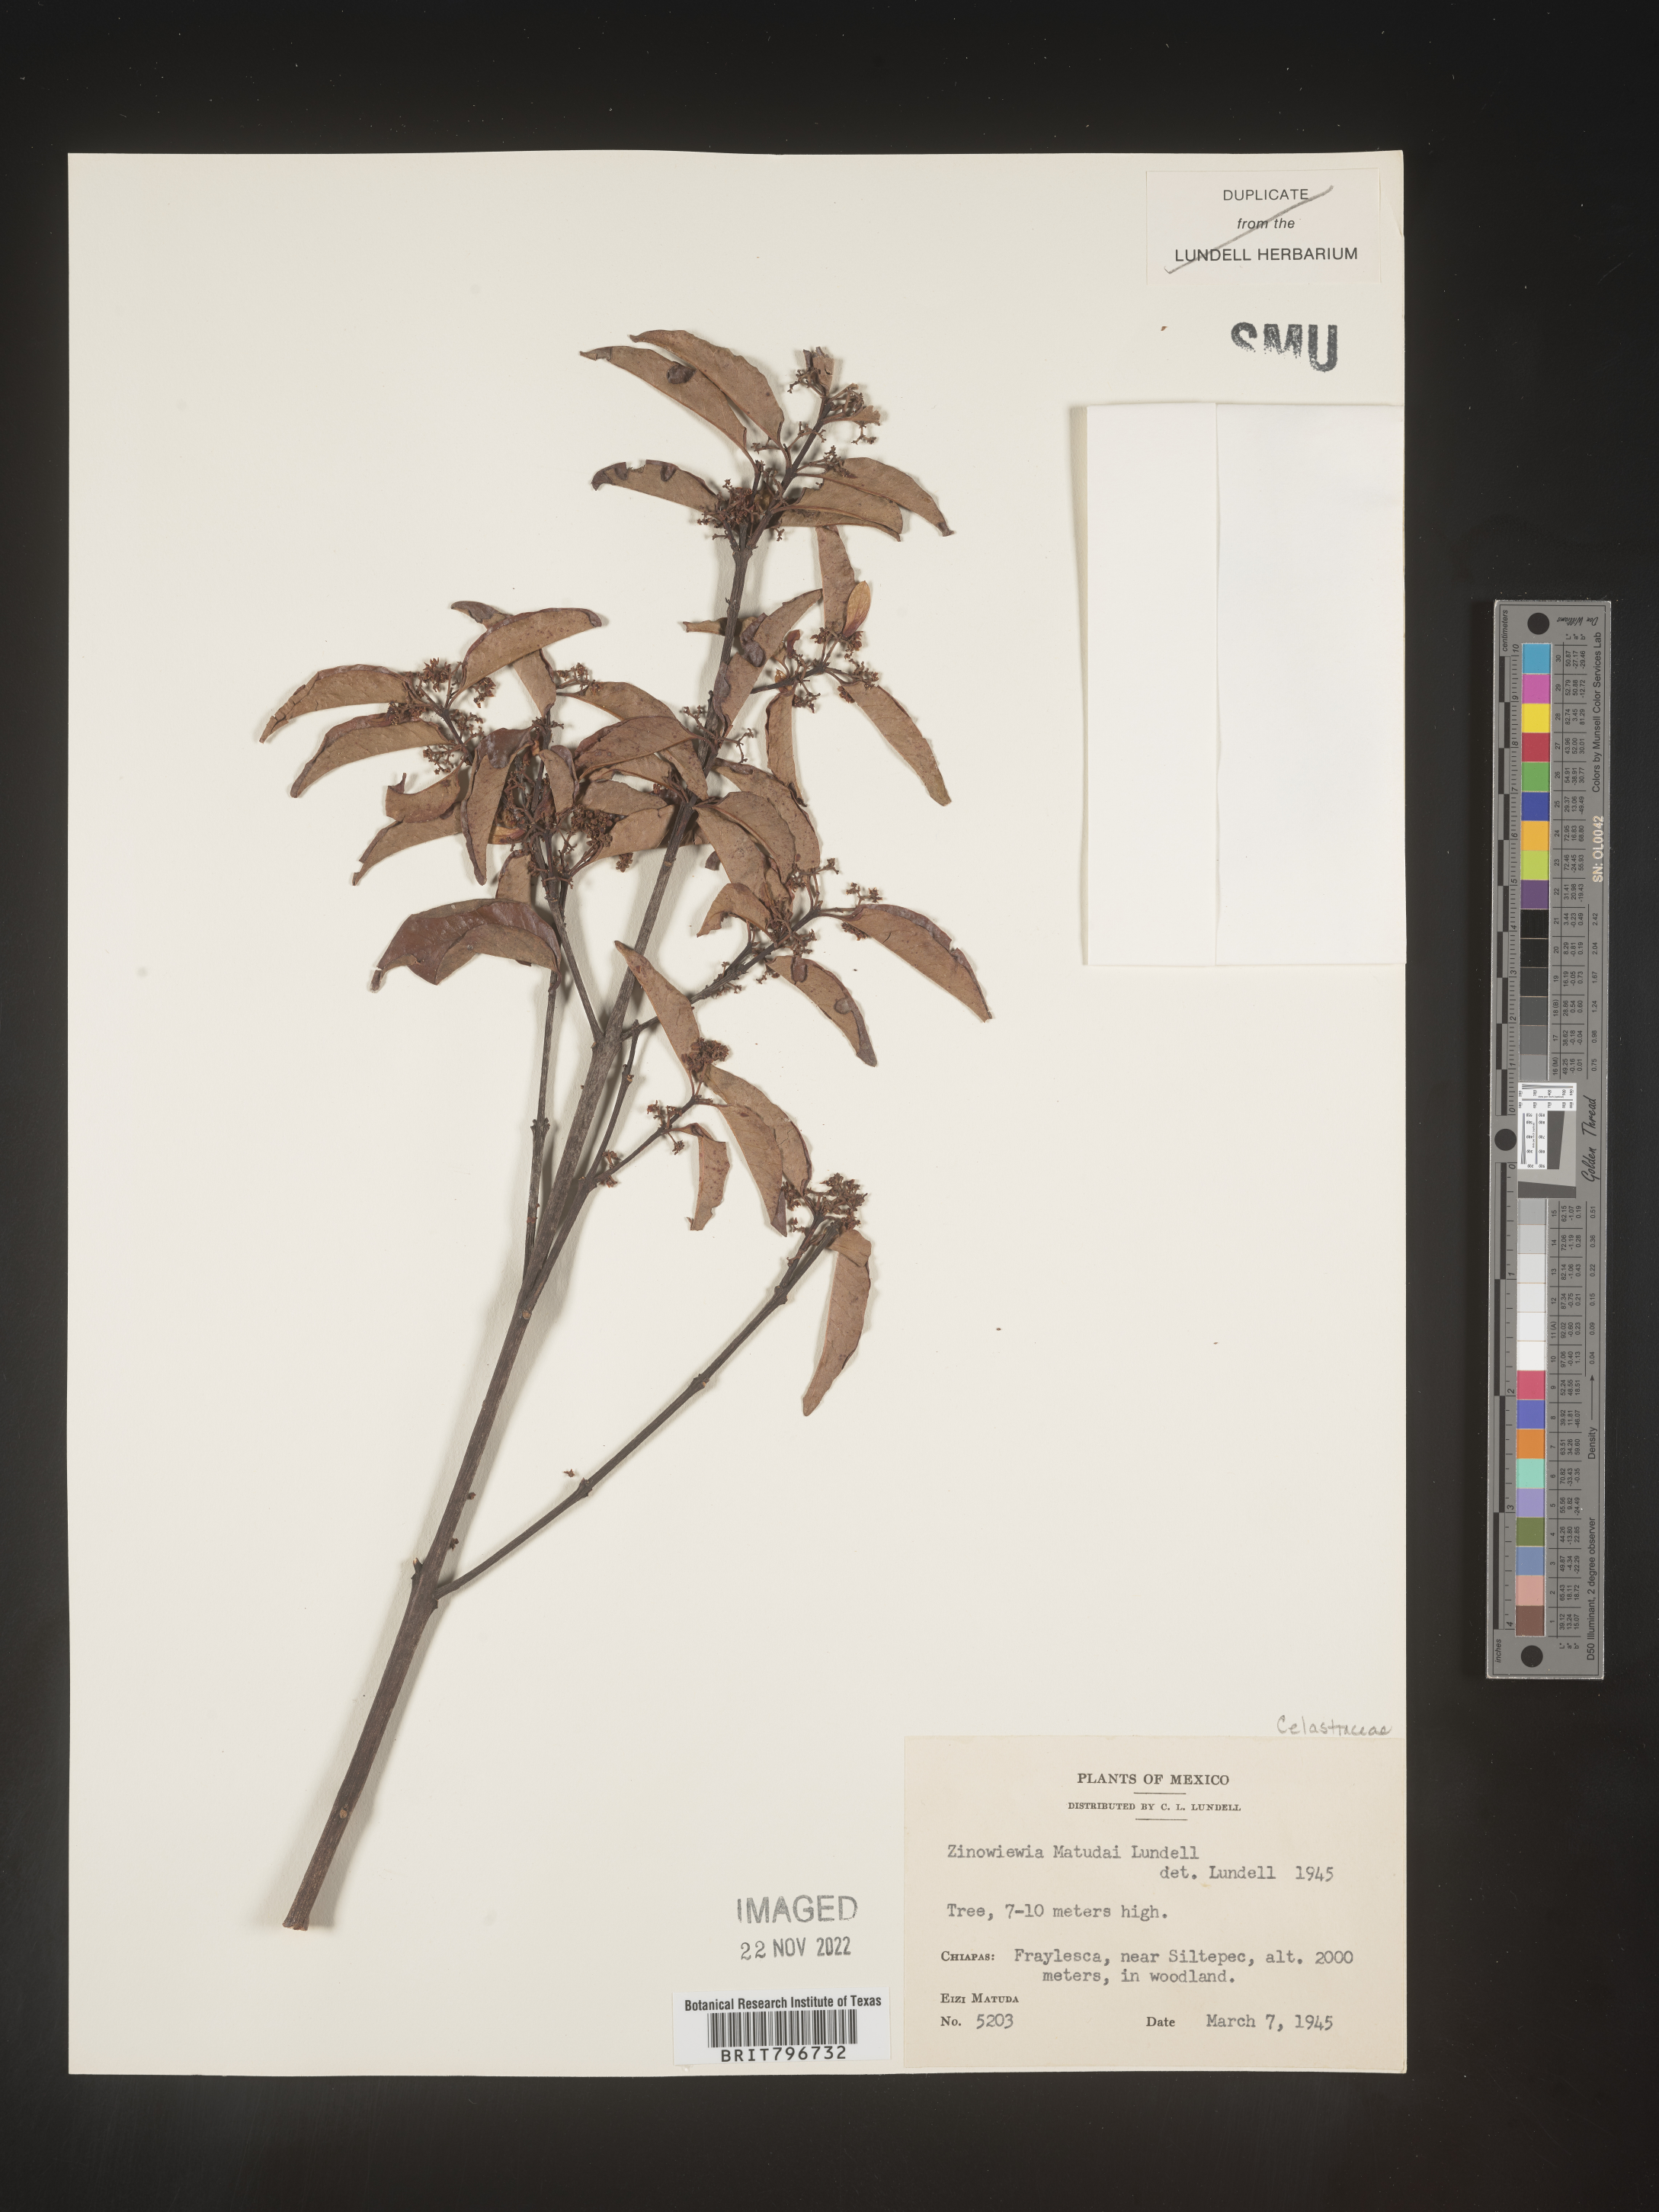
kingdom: Plantae
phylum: Tracheophyta
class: Magnoliopsida
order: Celastrales
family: Celastraceae
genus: Zinowiewia
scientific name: Zinowiewia
